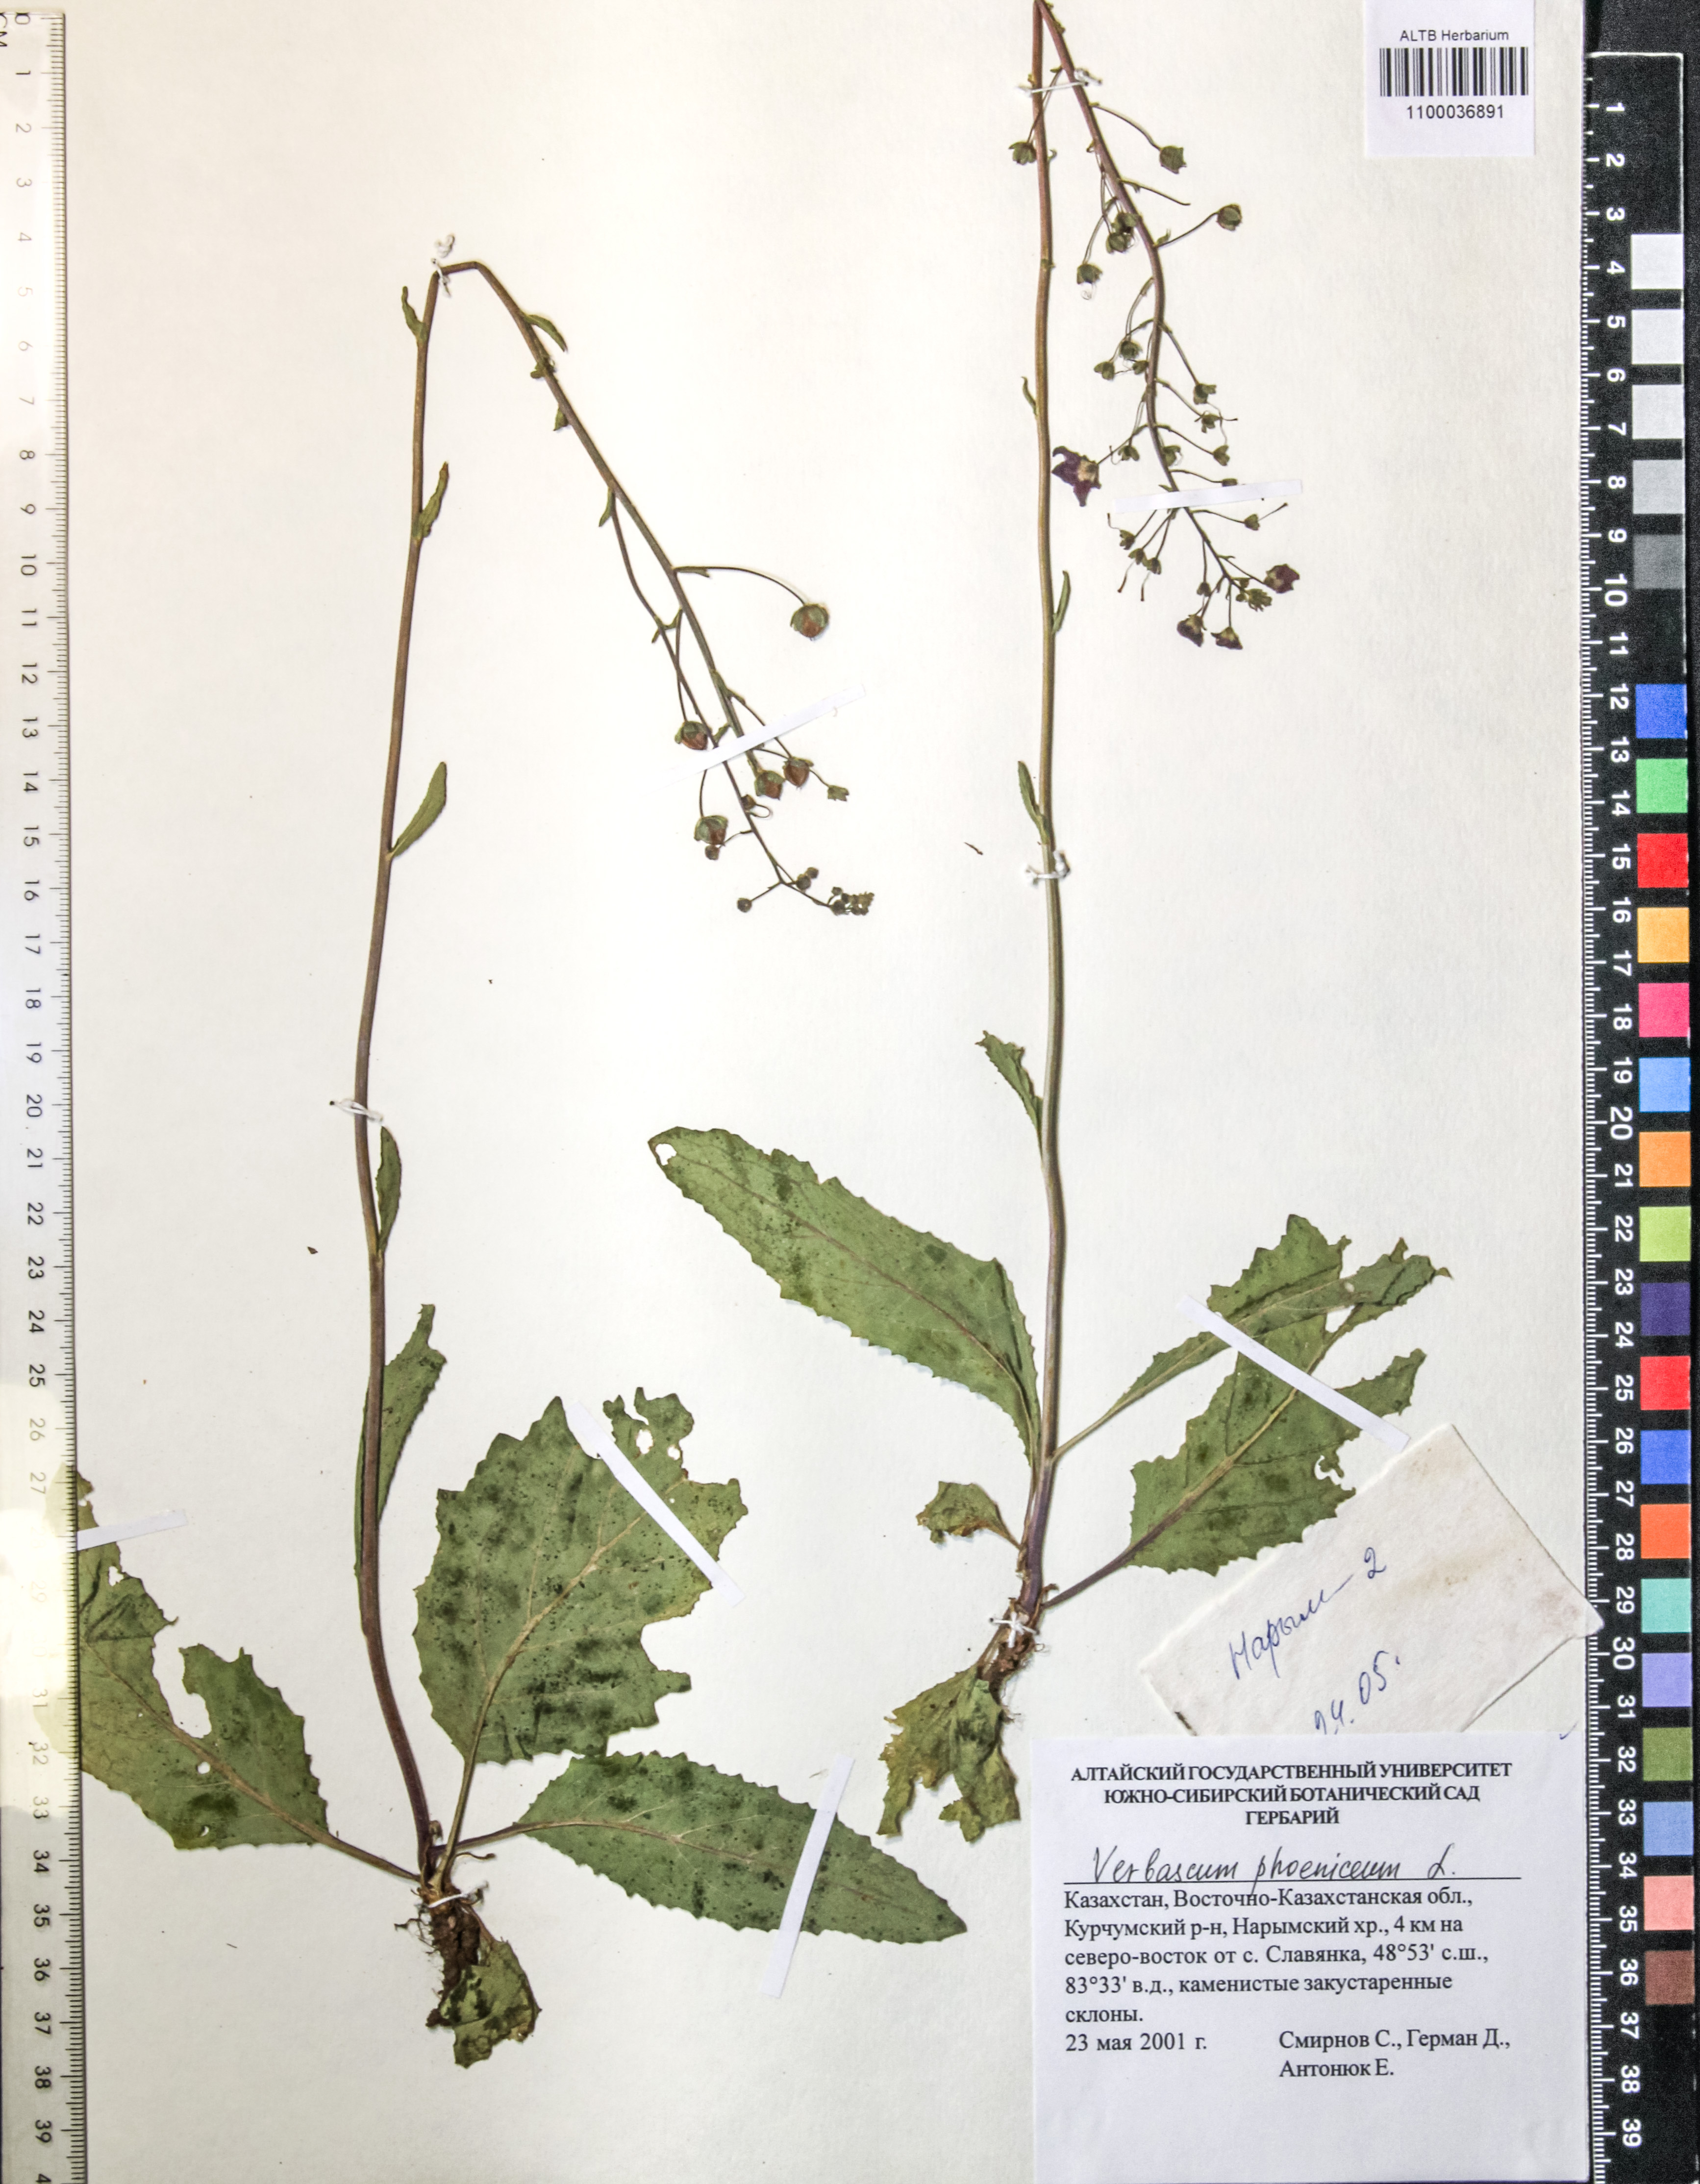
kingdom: Plantae
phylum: Tracheophyta
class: Magnoliopsida
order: Lamiales
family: Scrophulariaceae
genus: Verbascum
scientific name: Verbascum phoeniceum
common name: Purple mullein
